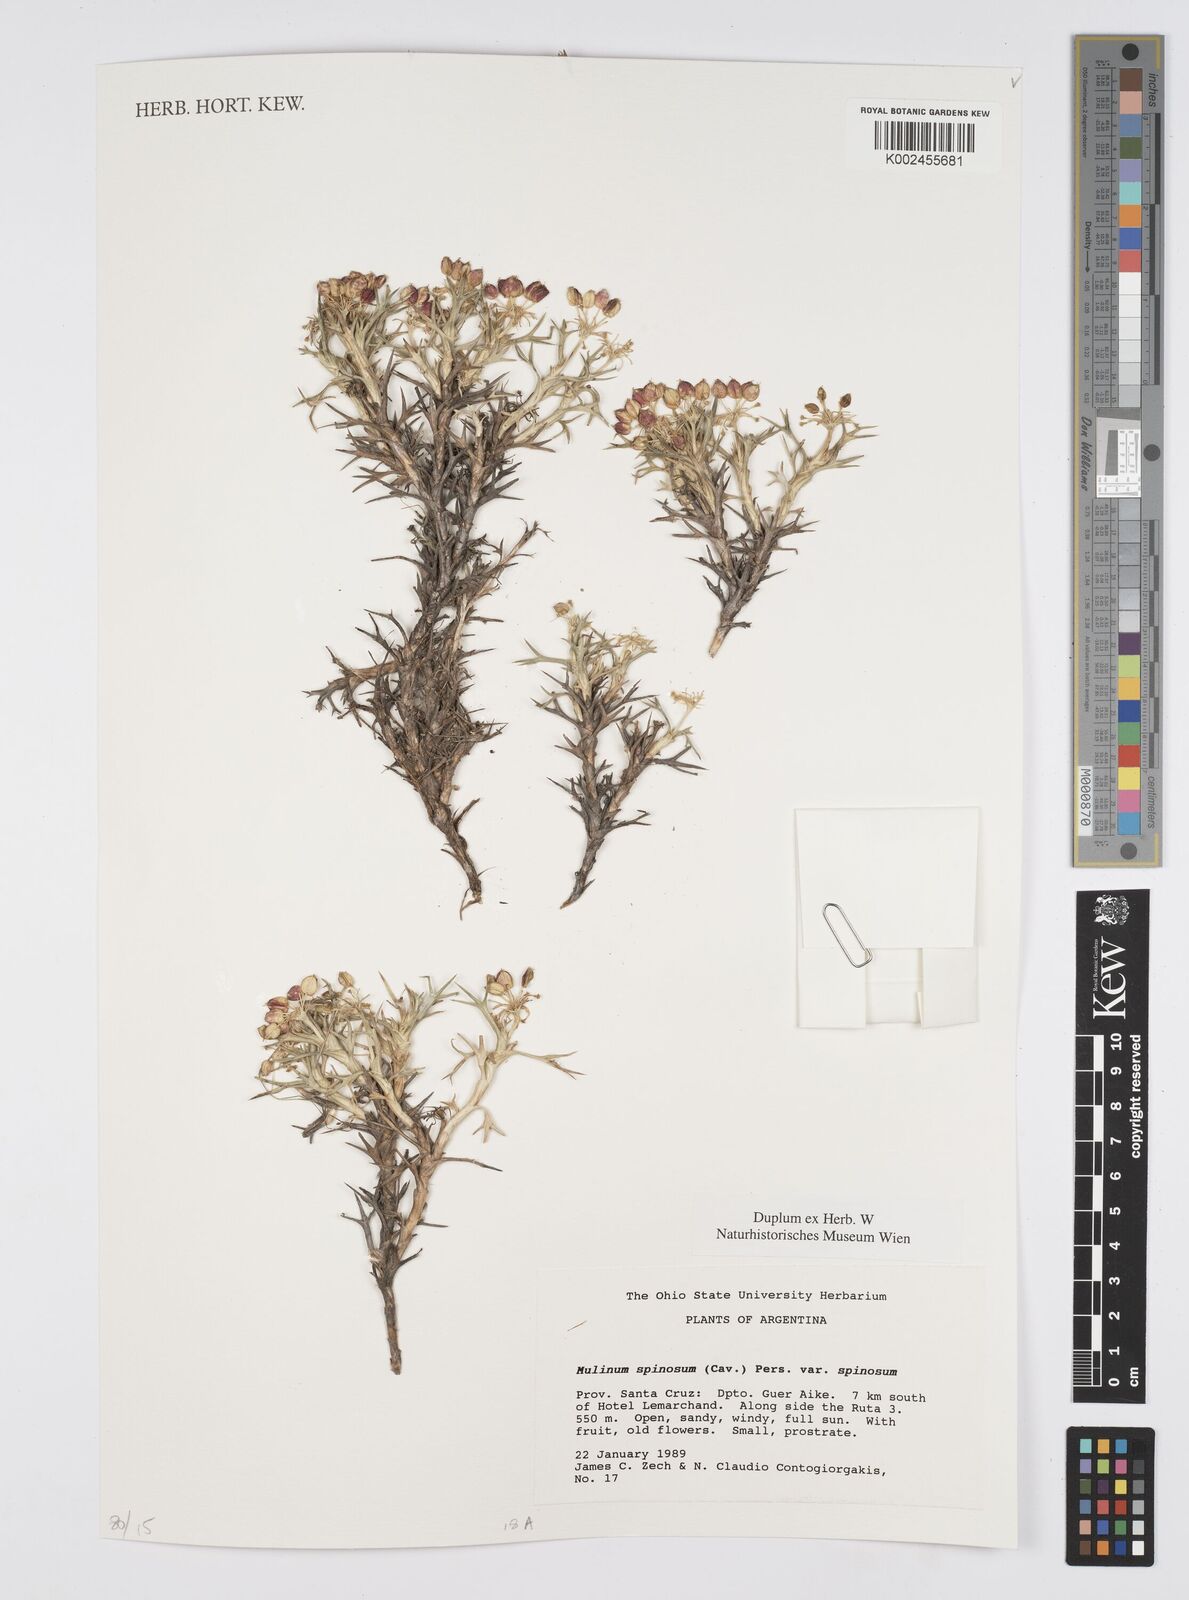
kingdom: Plantae
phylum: Tracheophyta
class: Magnoliopsida
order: Apiales
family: Apiaceae
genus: Azorella
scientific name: Azorella prolifera
